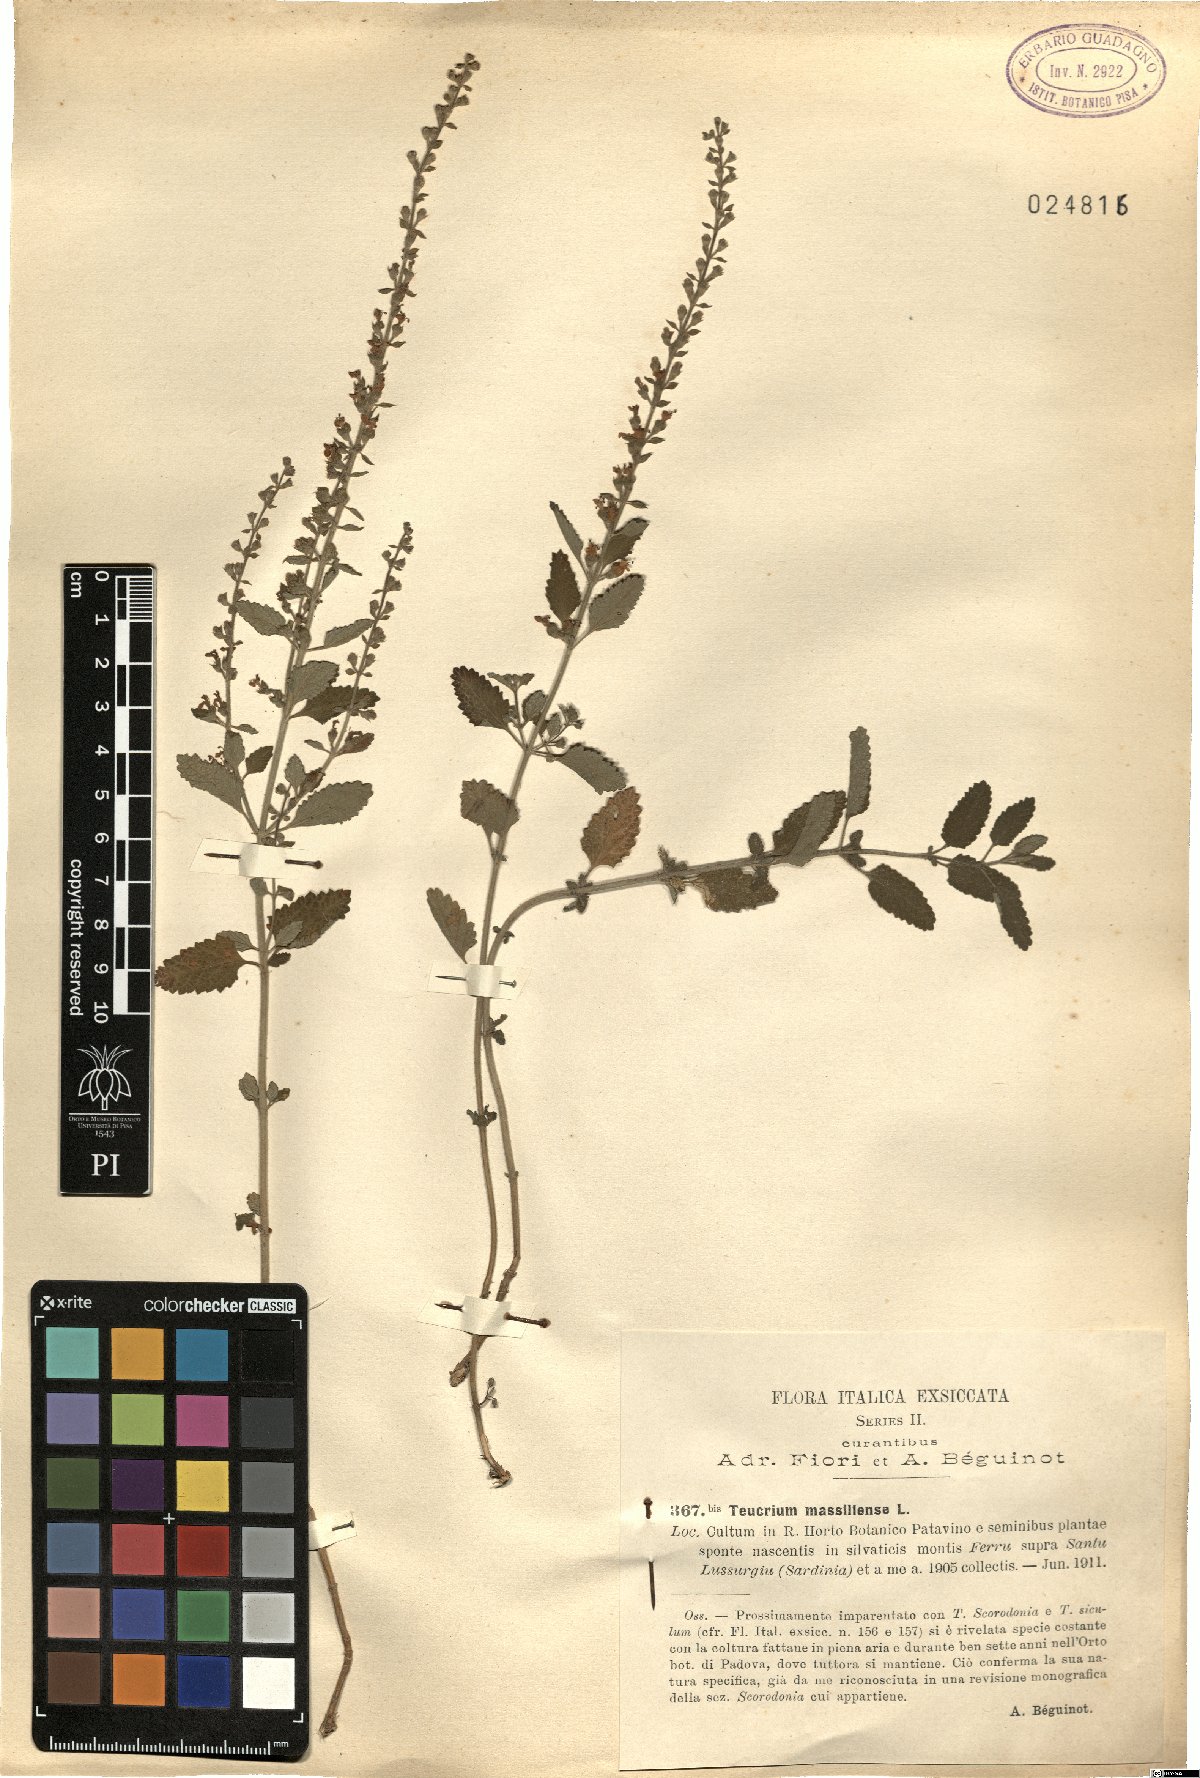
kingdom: Plantae
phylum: Tracheophyta
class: Magnoliopsida
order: Lamiales
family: Lamiaceae
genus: Teucrium
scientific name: Teucrium massiliense
